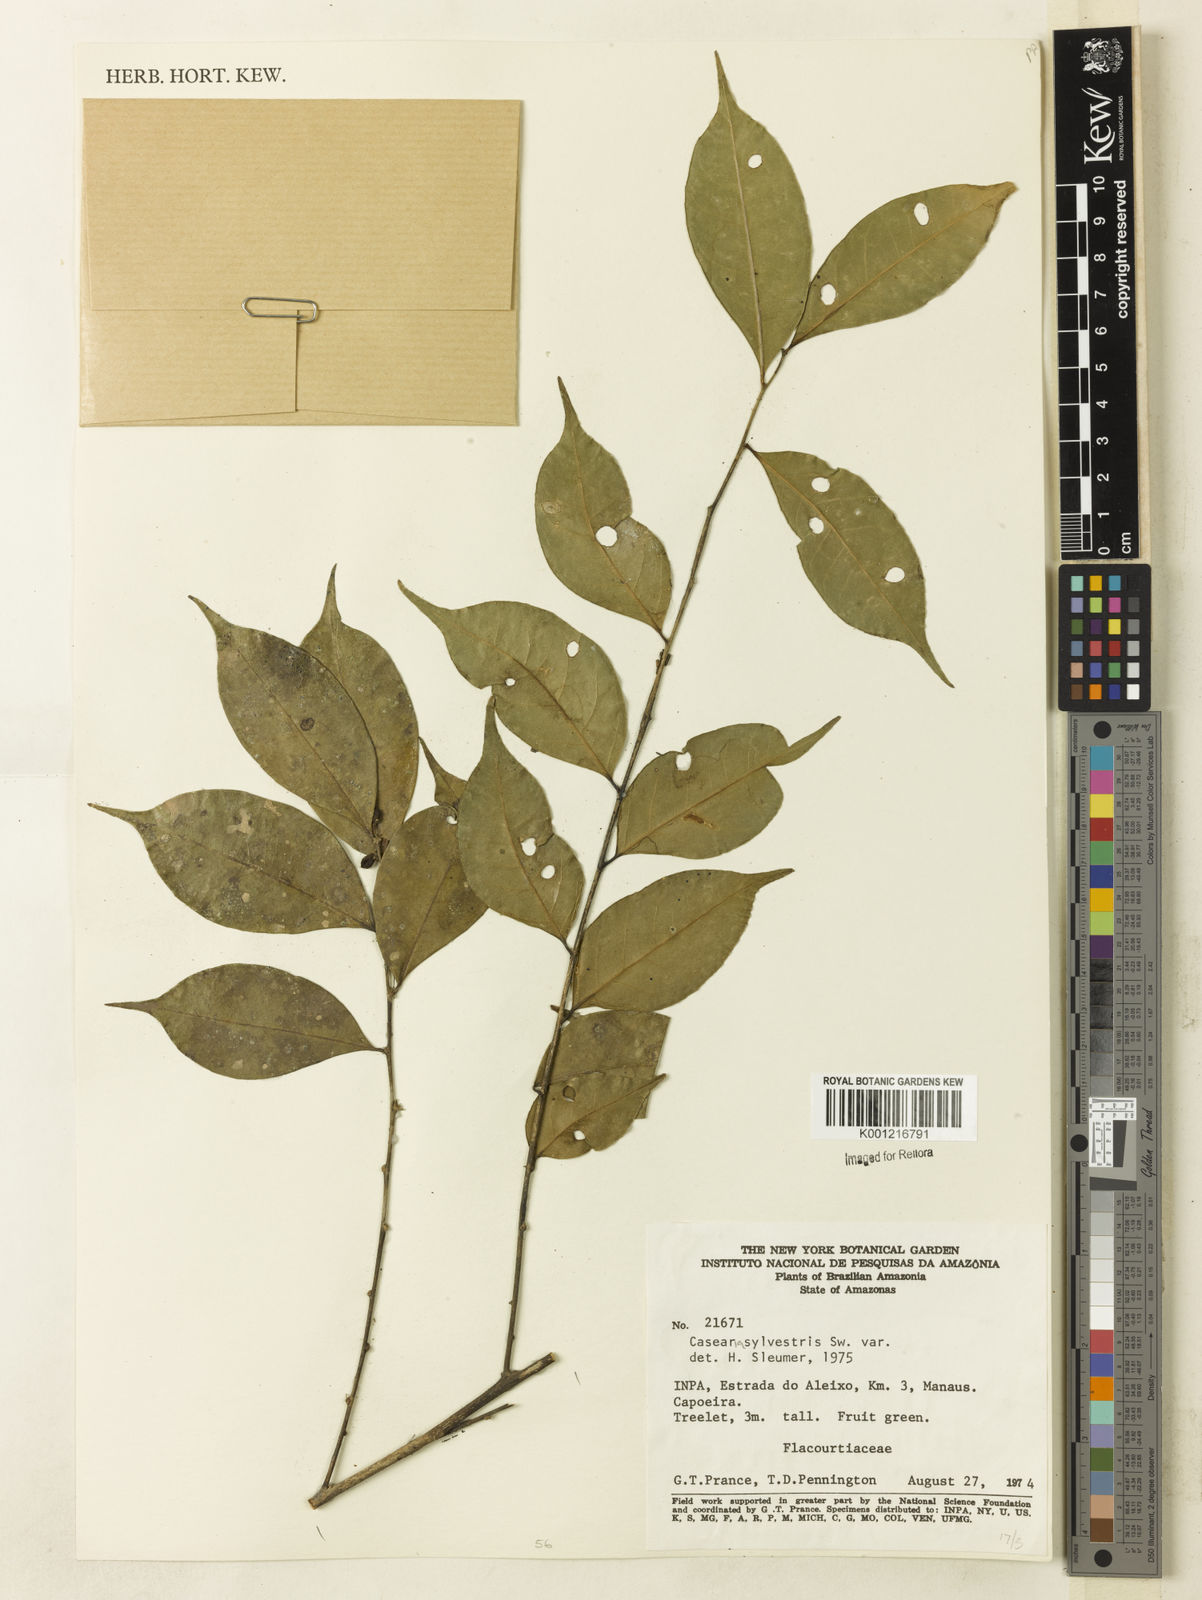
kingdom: Plantae
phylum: Tracheophyta
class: Magnoliopsida
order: Malpighiales
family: Salicaceae
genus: Casearia
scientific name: Casearia sylvestris
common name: Wild sage
